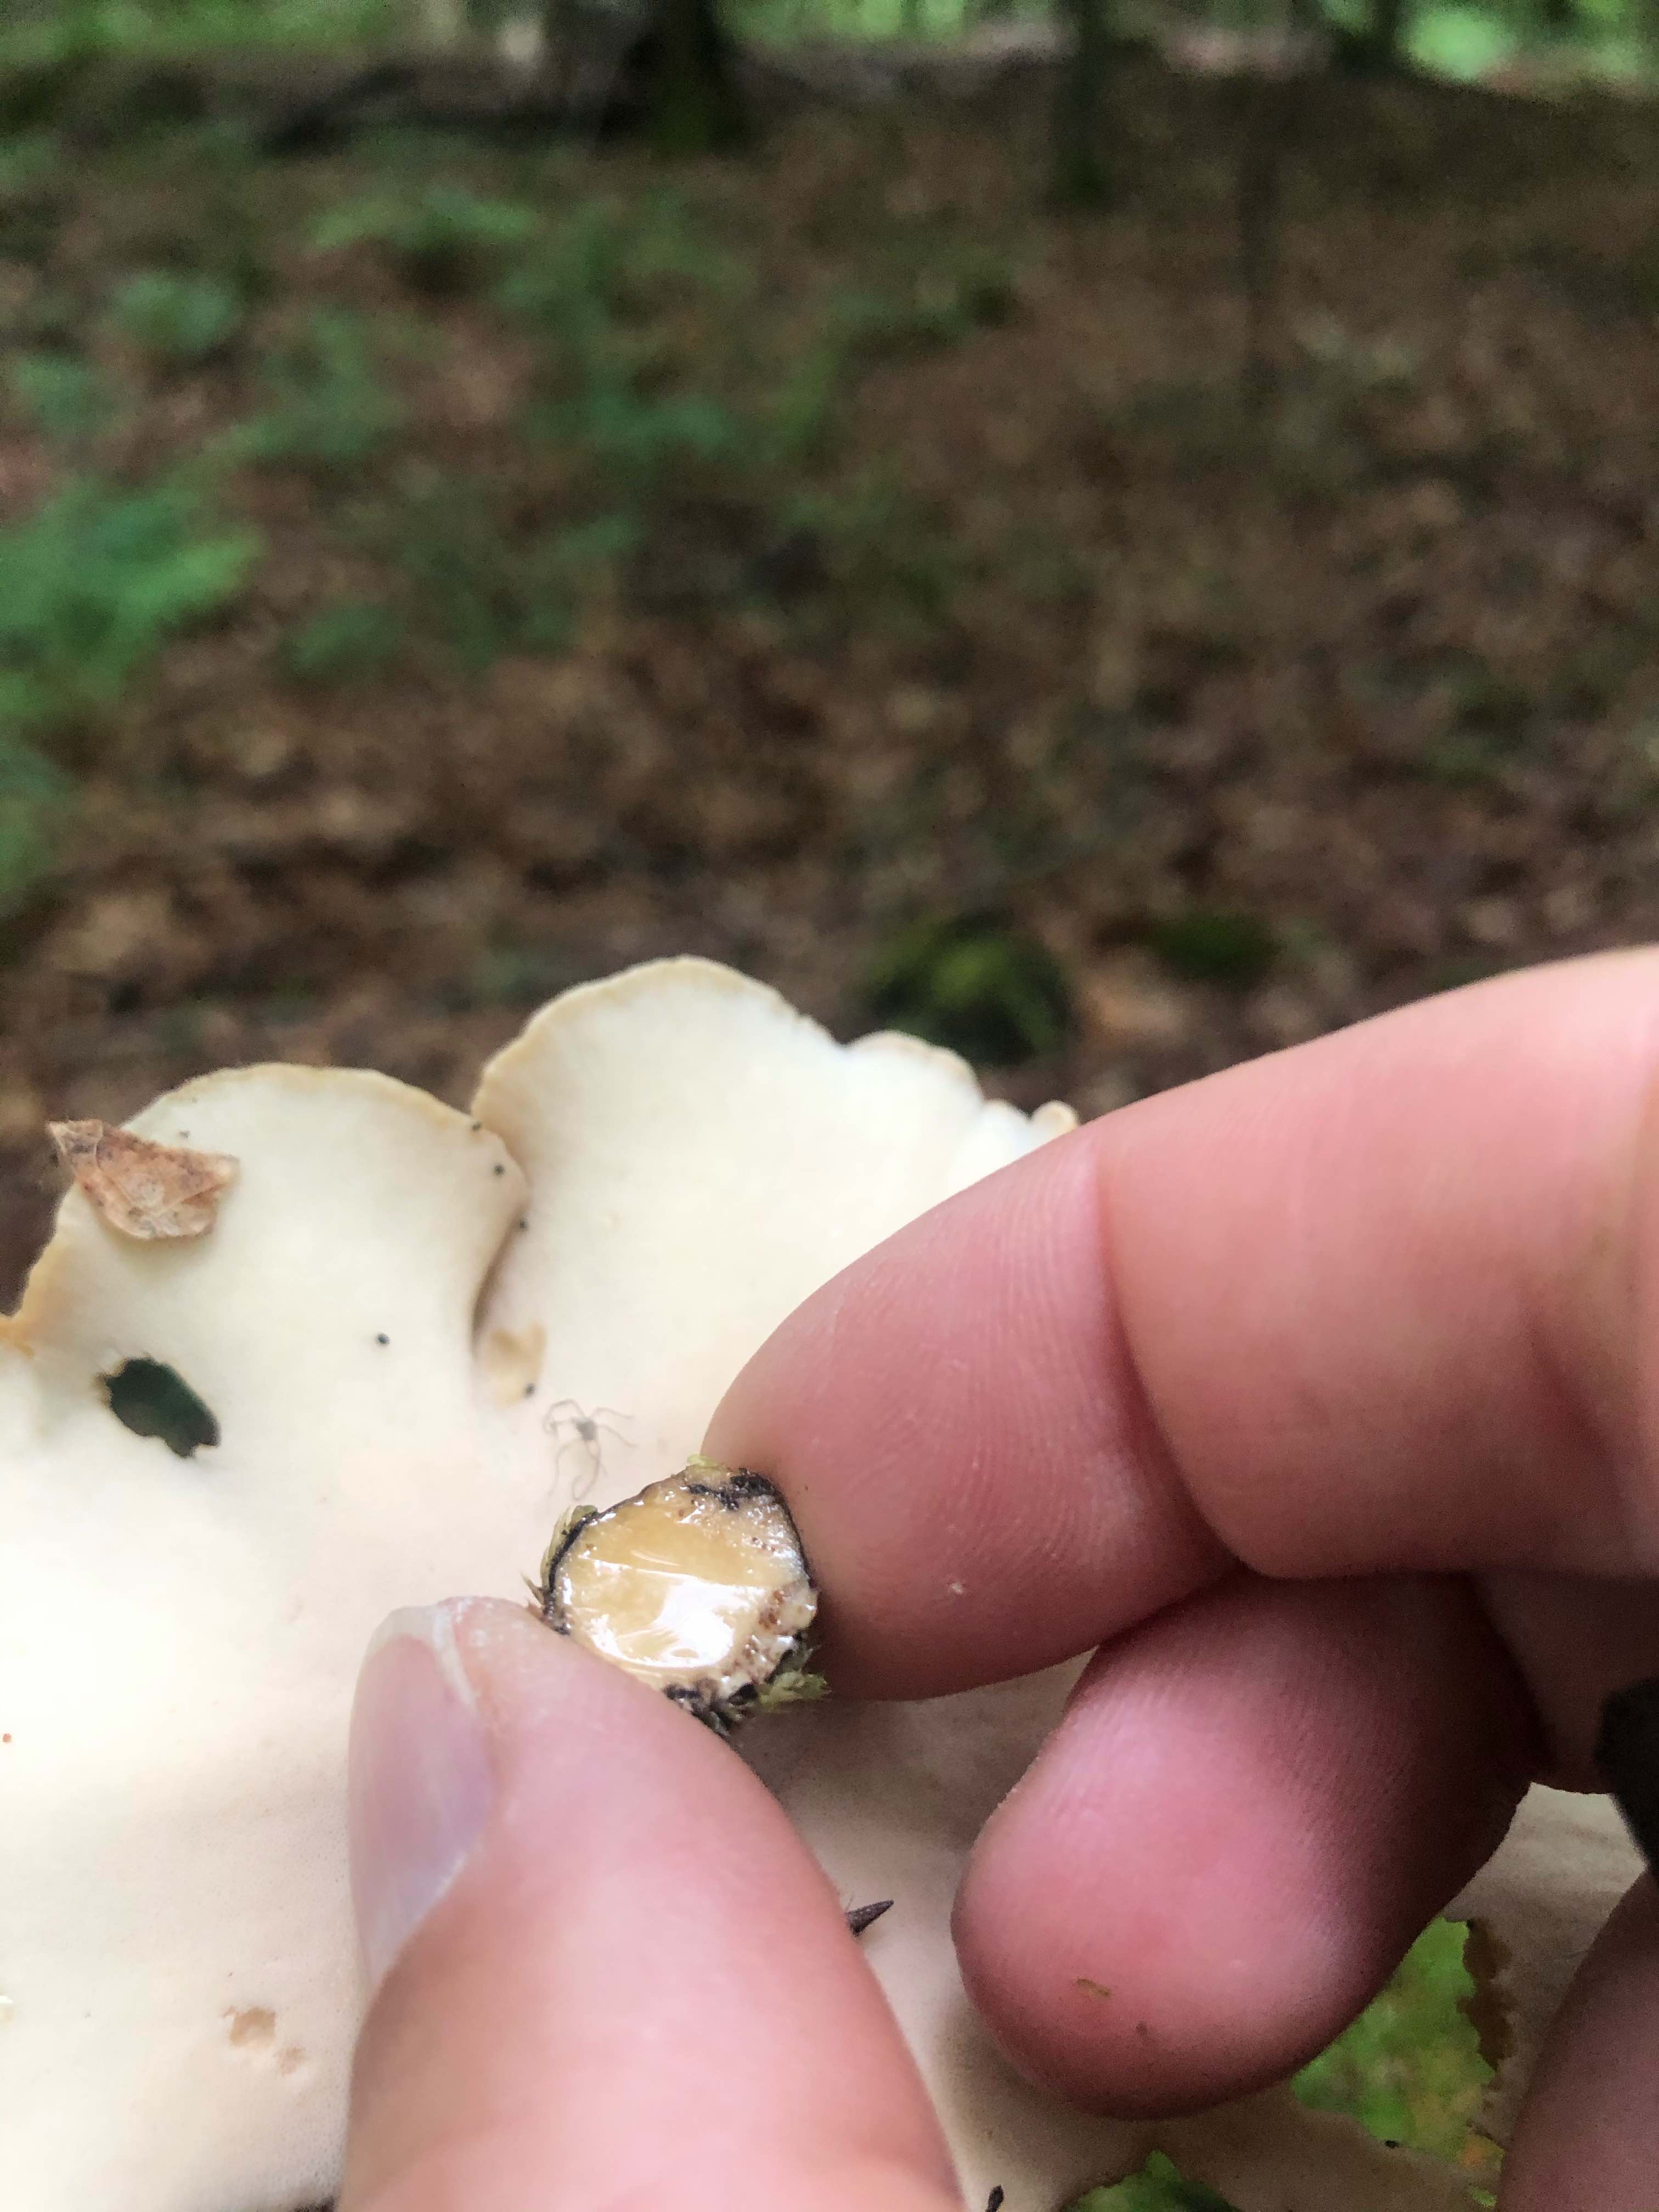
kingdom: Fungi
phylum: Basidiomycota
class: Agaricomycetes
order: Polyporales
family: Polyporaceae
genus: Cerioporus
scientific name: Cerioporus varius
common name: foranderlig stilkporesvamp
